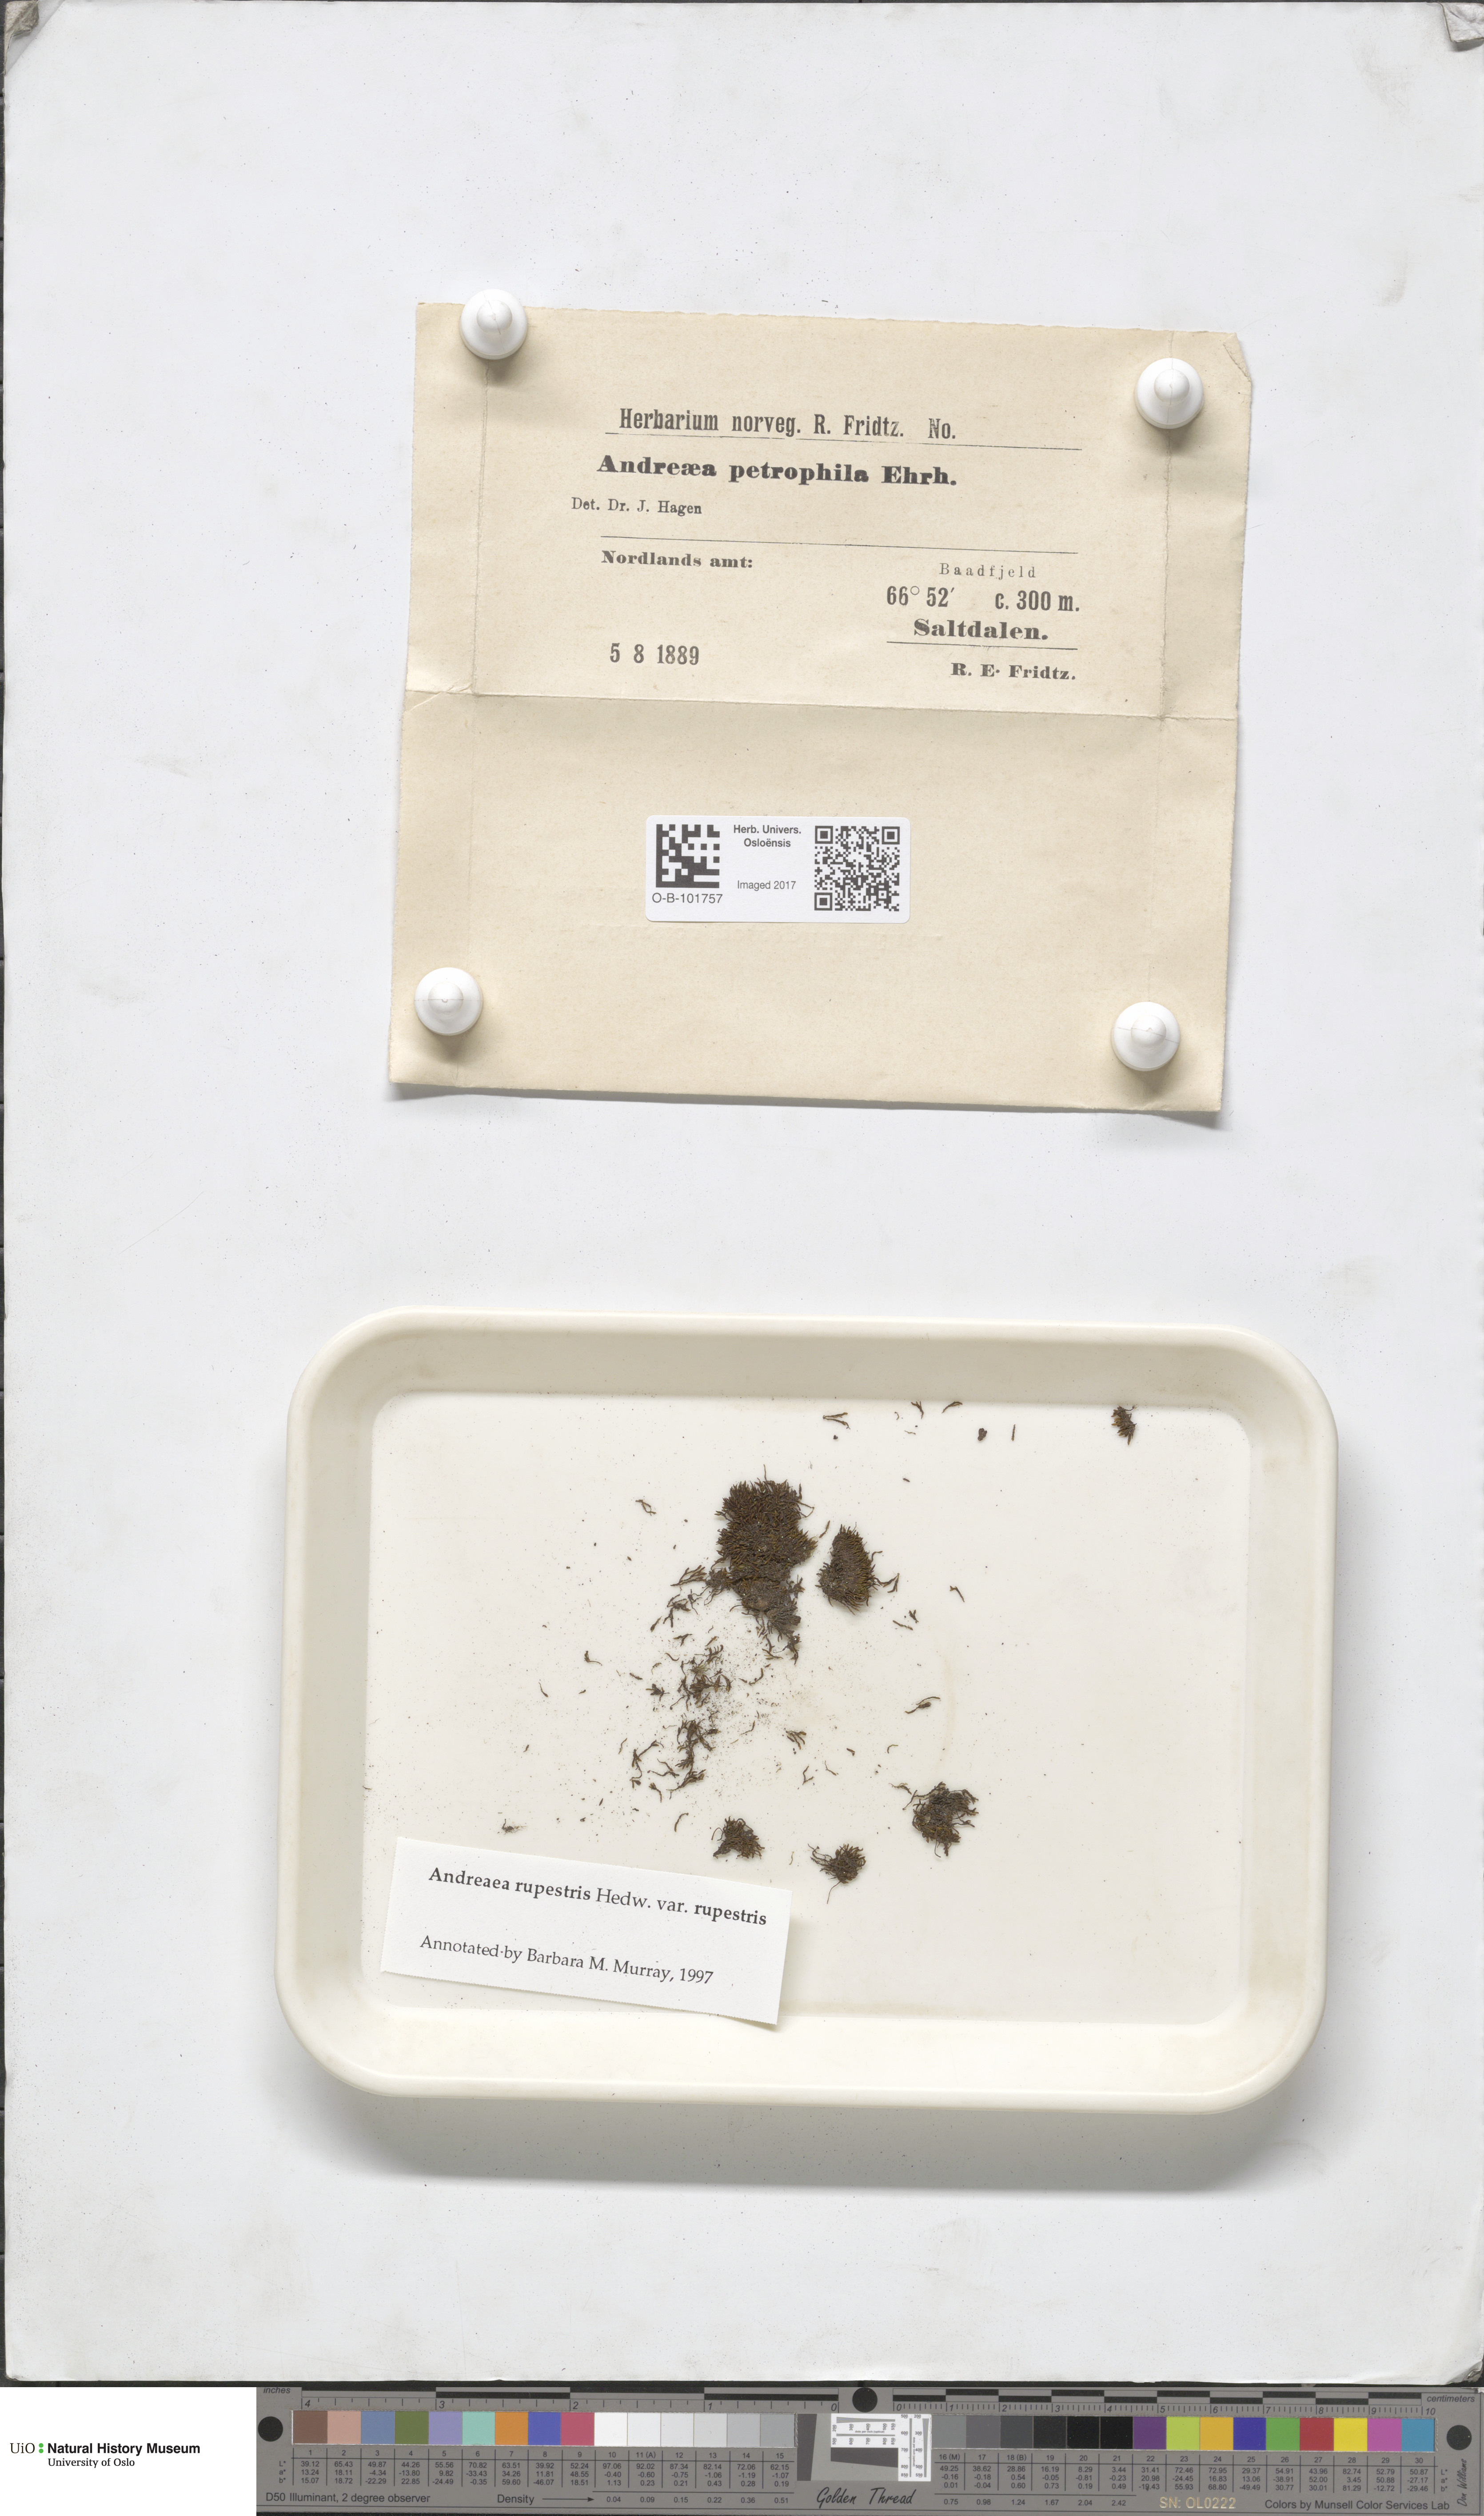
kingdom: Plantae
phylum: Bryophyta
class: Andreaeopsida
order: Andreaeales
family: Andreaeaceae
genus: Andreaea
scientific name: Andreaea rupestris
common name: Black rock moss
